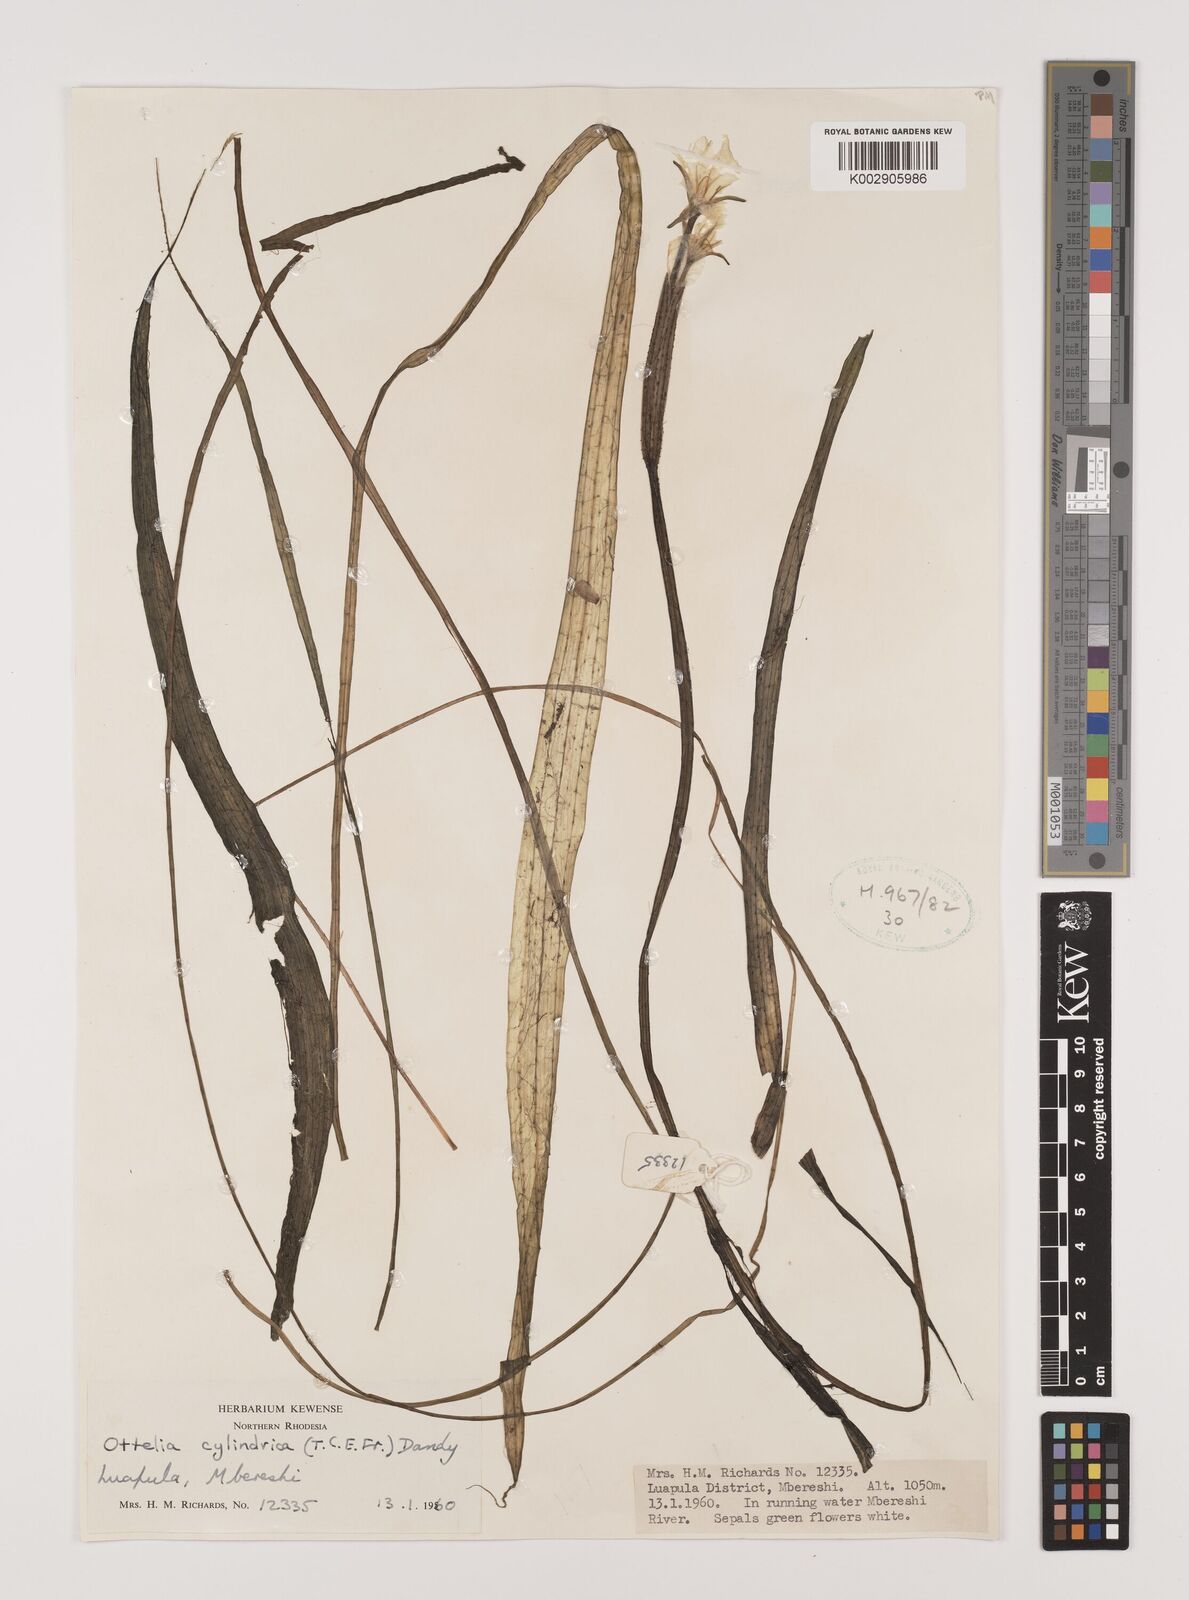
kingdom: Plantae
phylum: Tracheophyta
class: Liliopsida
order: Alismatales
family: Hydrocharitaceae
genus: Ottelia
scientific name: Ottelia cylindrica
